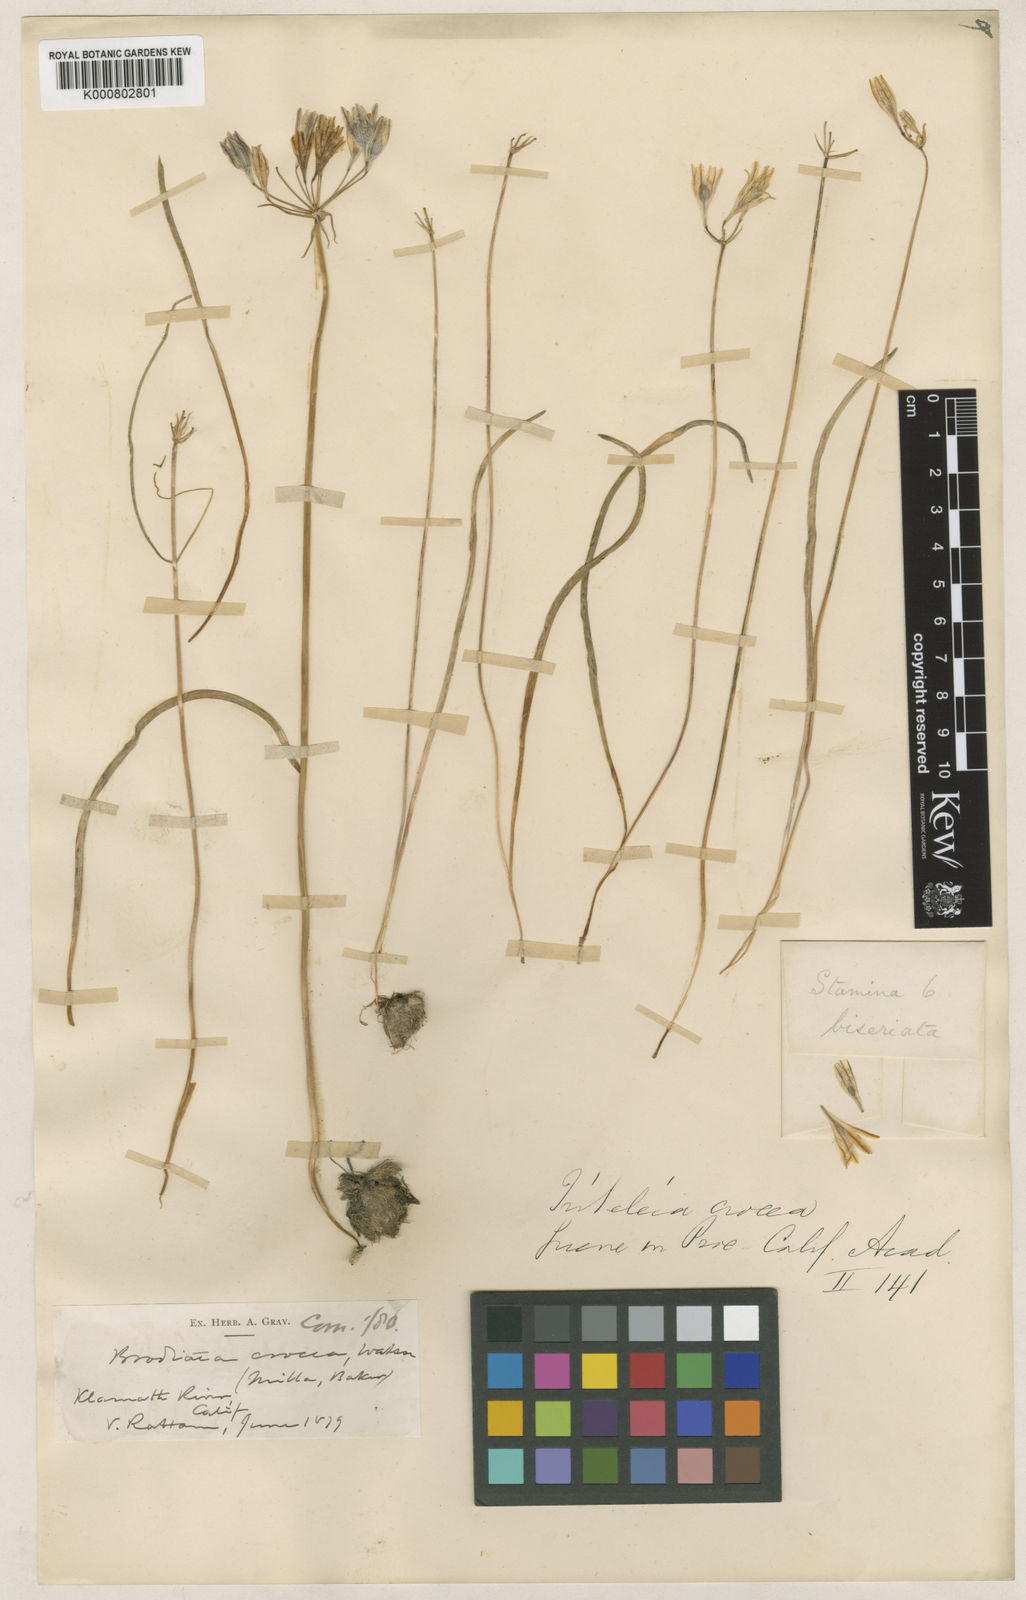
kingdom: Plantae
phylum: Tracheophyta
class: Liliopsida
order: Asparagales
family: Asparagaceae
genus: Triteleia
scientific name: Triteleia crocea
